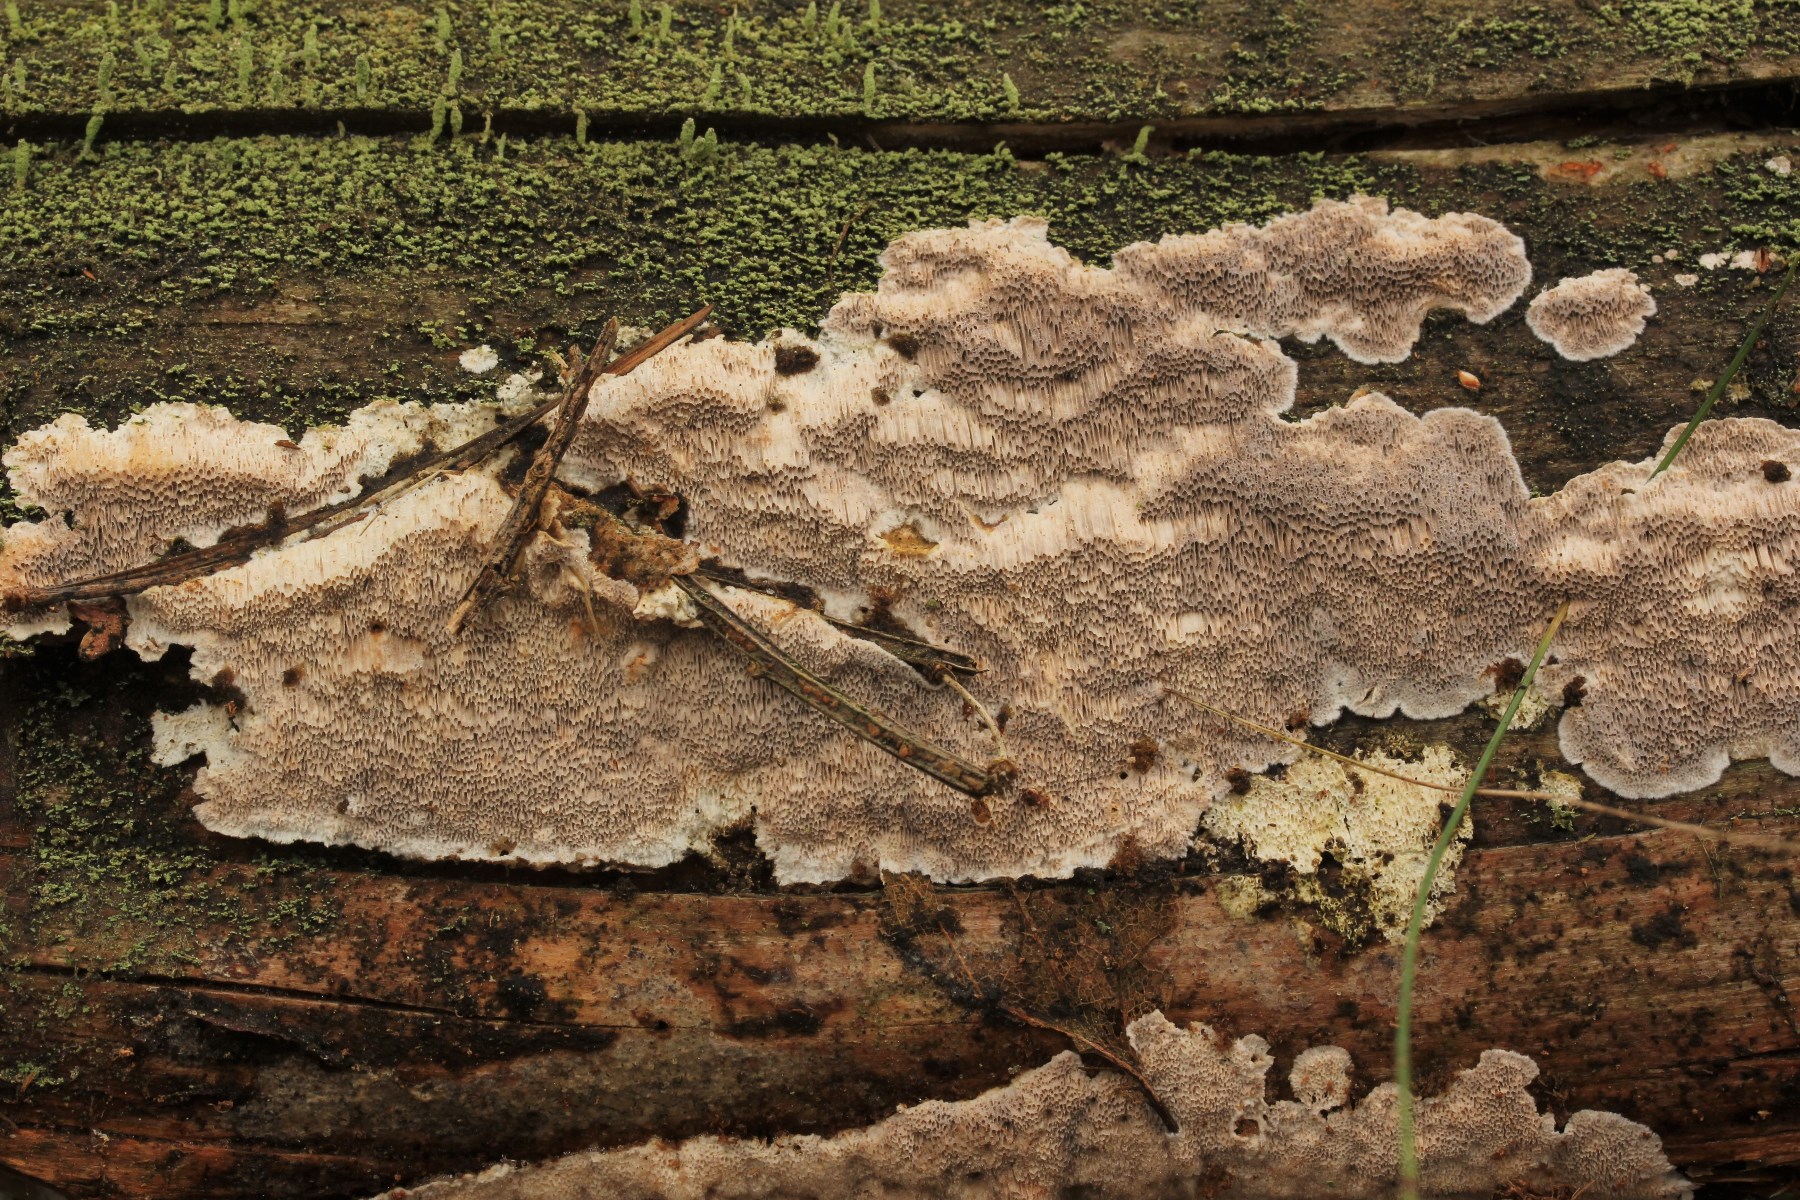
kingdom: Fungi
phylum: Basidiomycota
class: Agaricomycetes
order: Polyporales
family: Gelatoporiaceae
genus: Cinereomyces
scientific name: Cinereomyces lindbladii
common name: almindelig gråporesvamp
